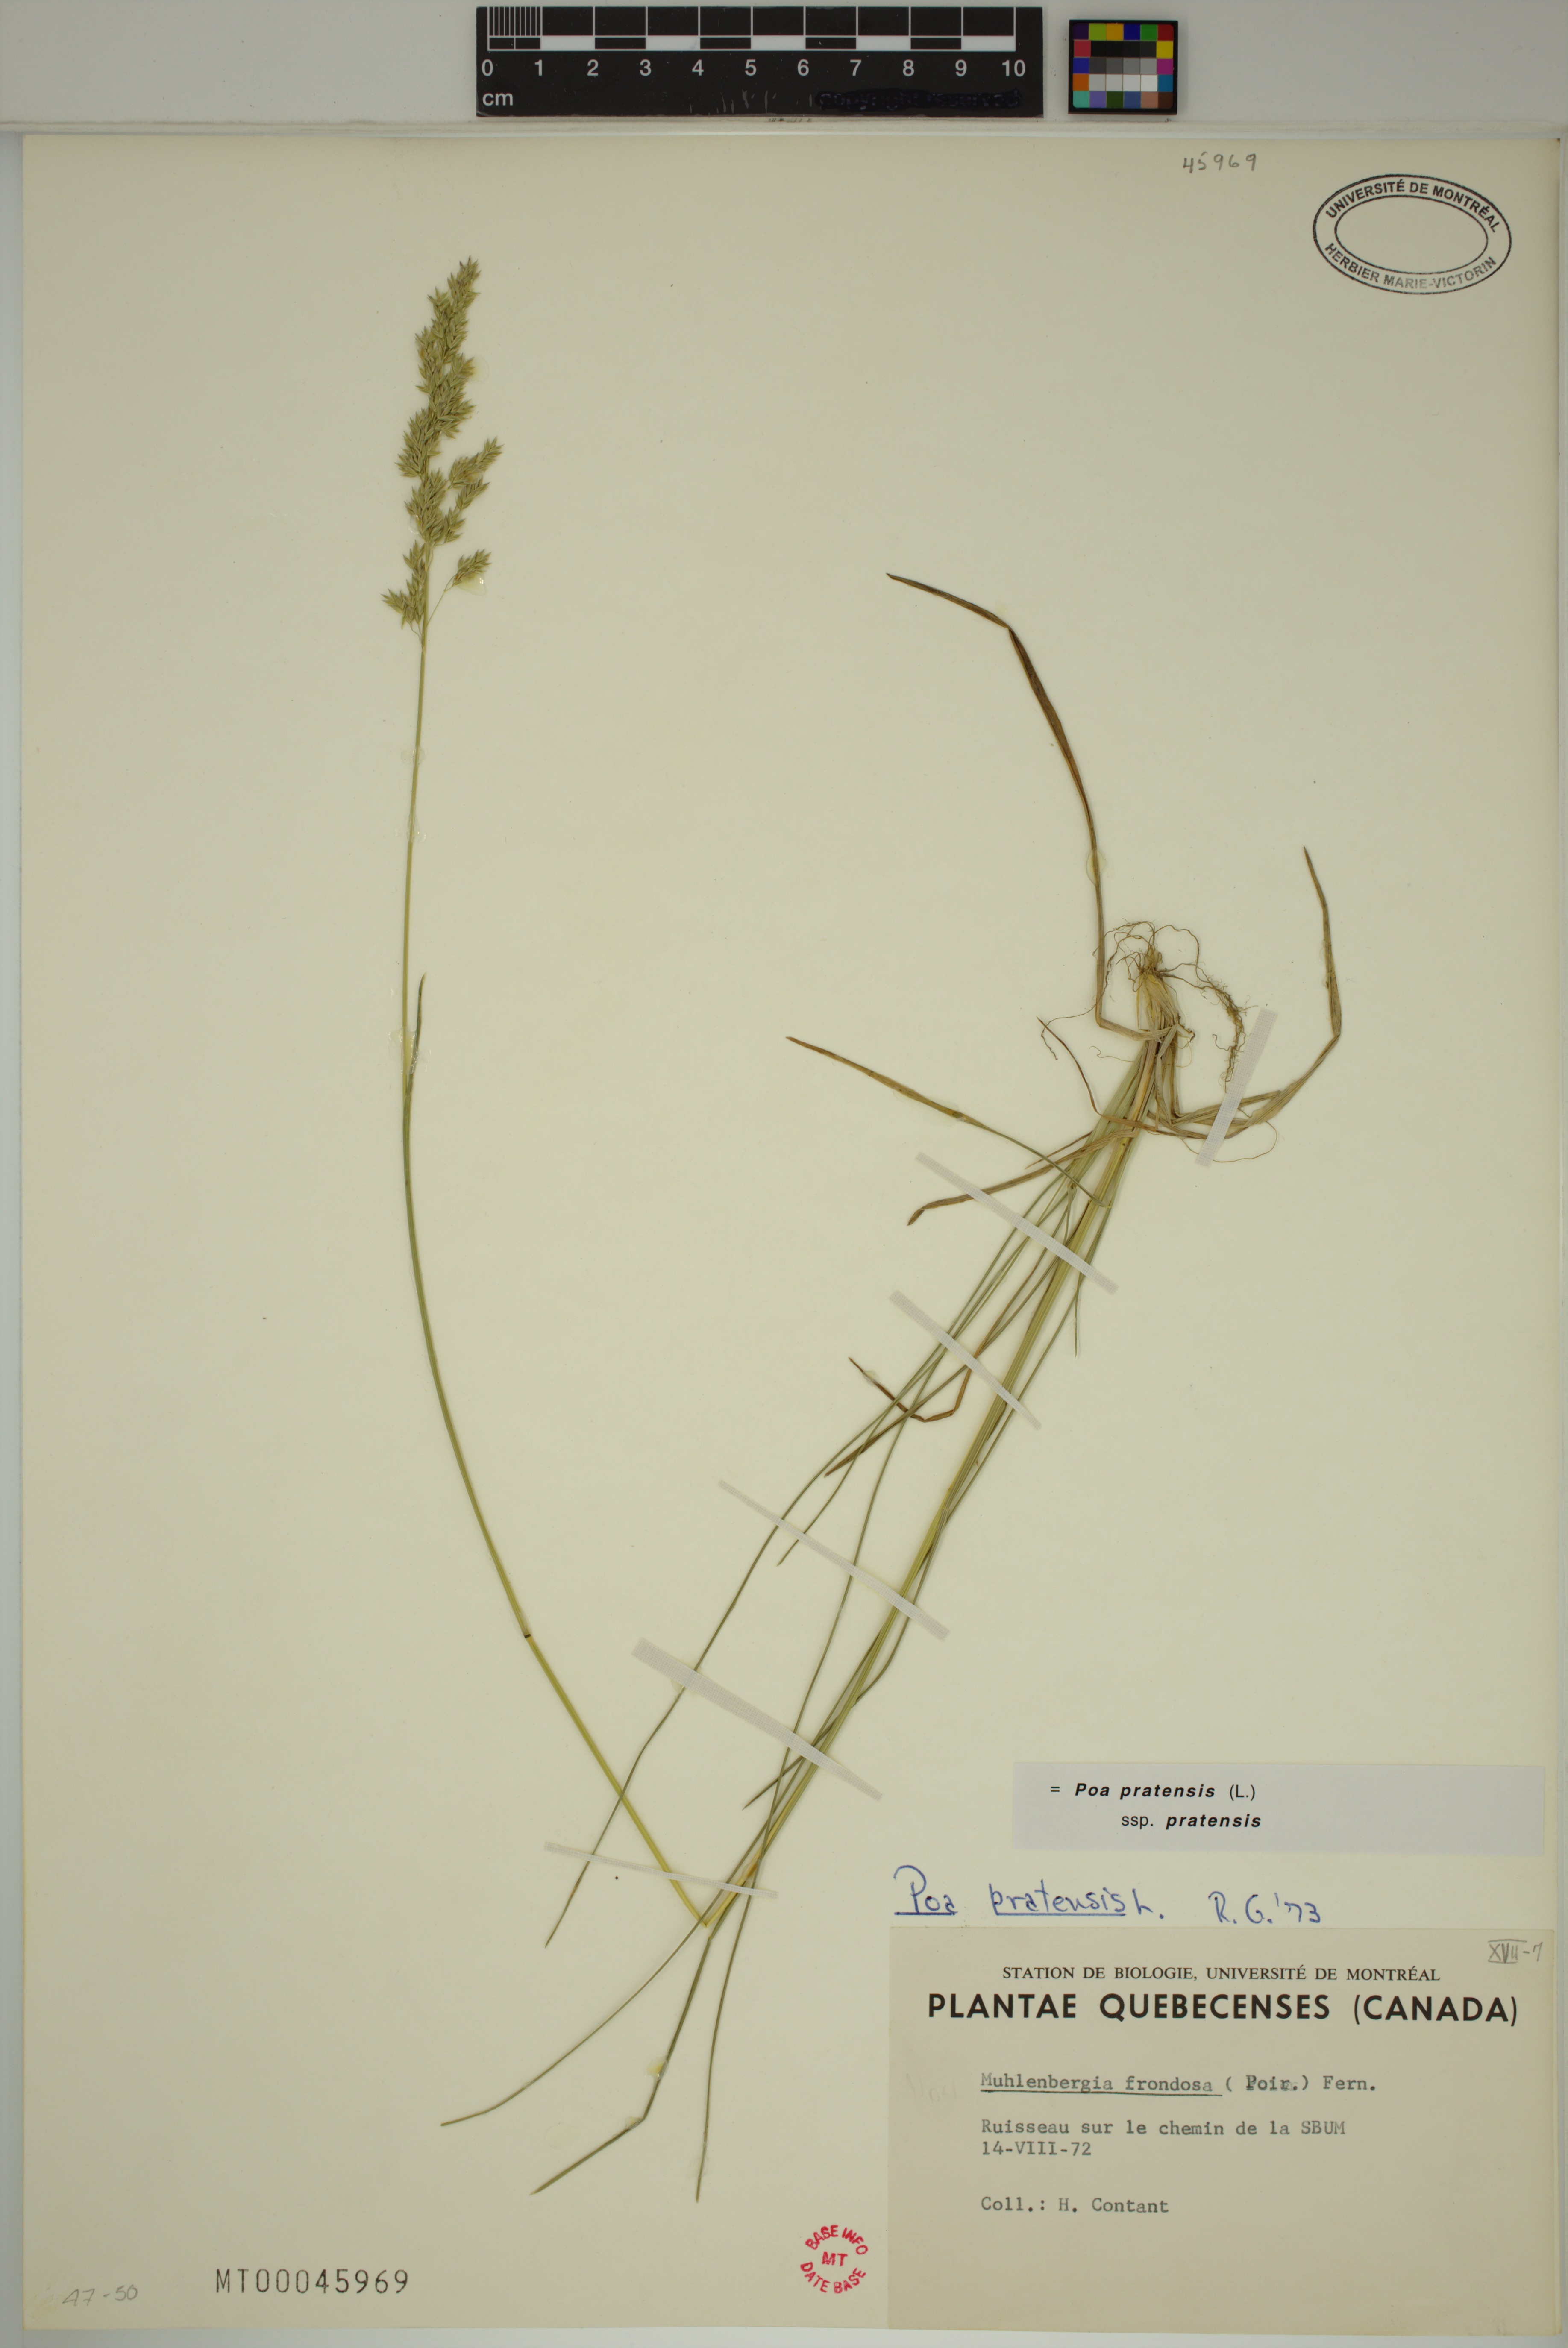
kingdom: Plantae
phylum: Tracheophyta
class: Liliopsida
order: Poales
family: Poaceae
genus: Poa
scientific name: Poa pratensis
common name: Kentucky bluegrass
